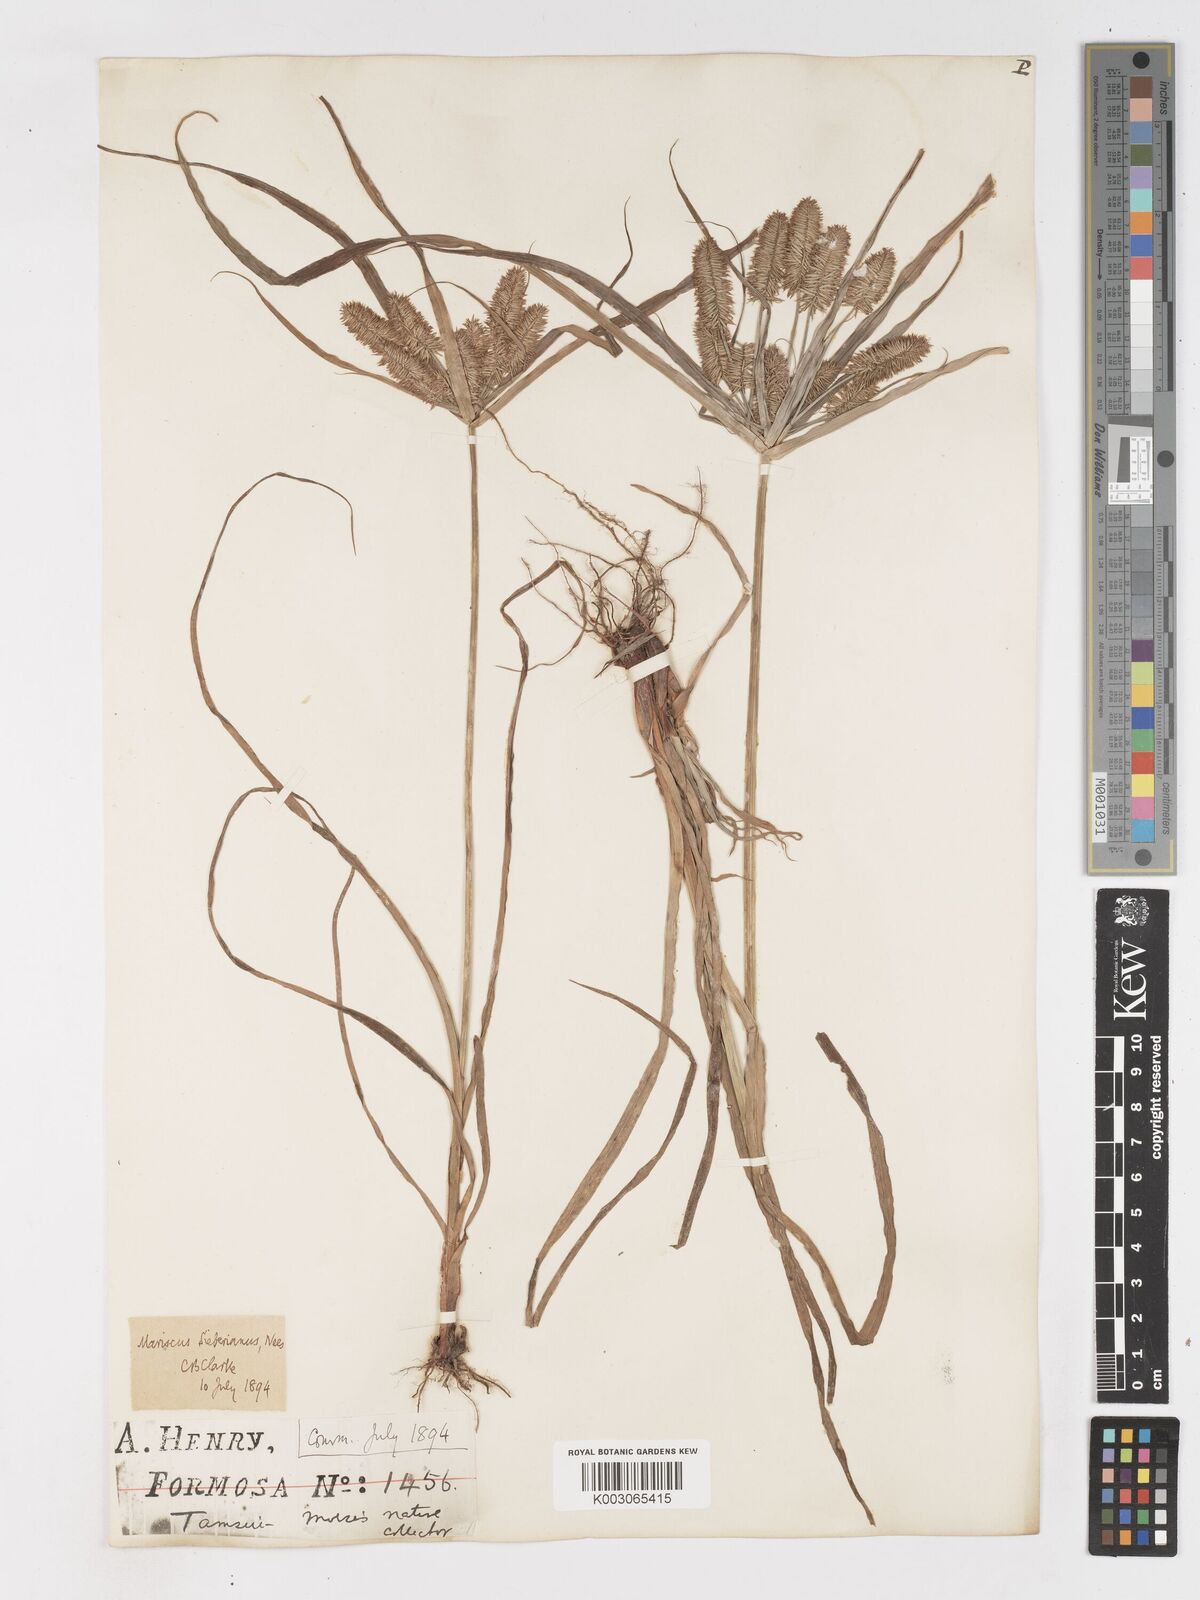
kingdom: Plantae
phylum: Tracheophyta
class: Liliopsida
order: Poales
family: Cyperaceae
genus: Cyperus
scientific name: Cyperus cyperoides
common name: Pacific island flat sedge
